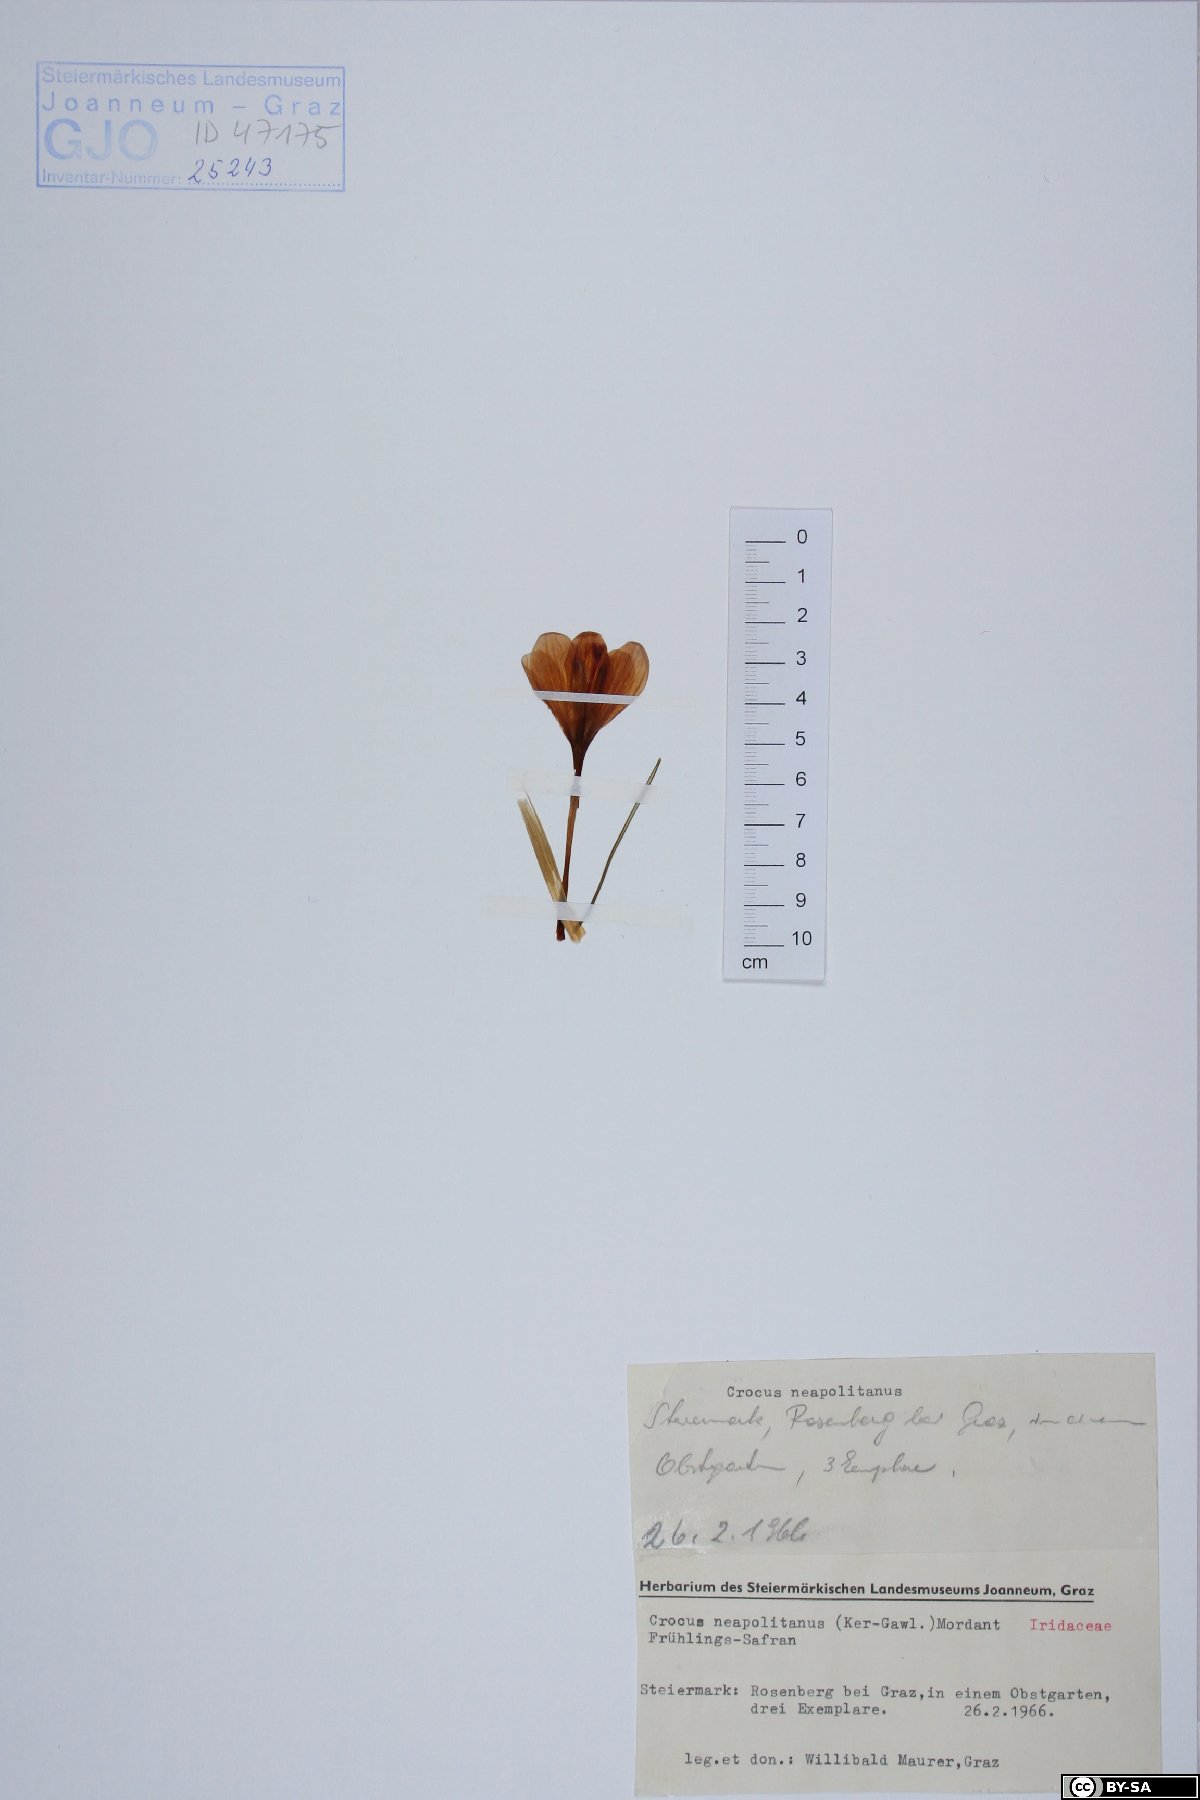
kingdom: Plantae
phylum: Tracheophyta
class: Liliopsida
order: Asparagales
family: Iridaceae
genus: Crocus
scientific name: Crocus vernus
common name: Spring crocus
